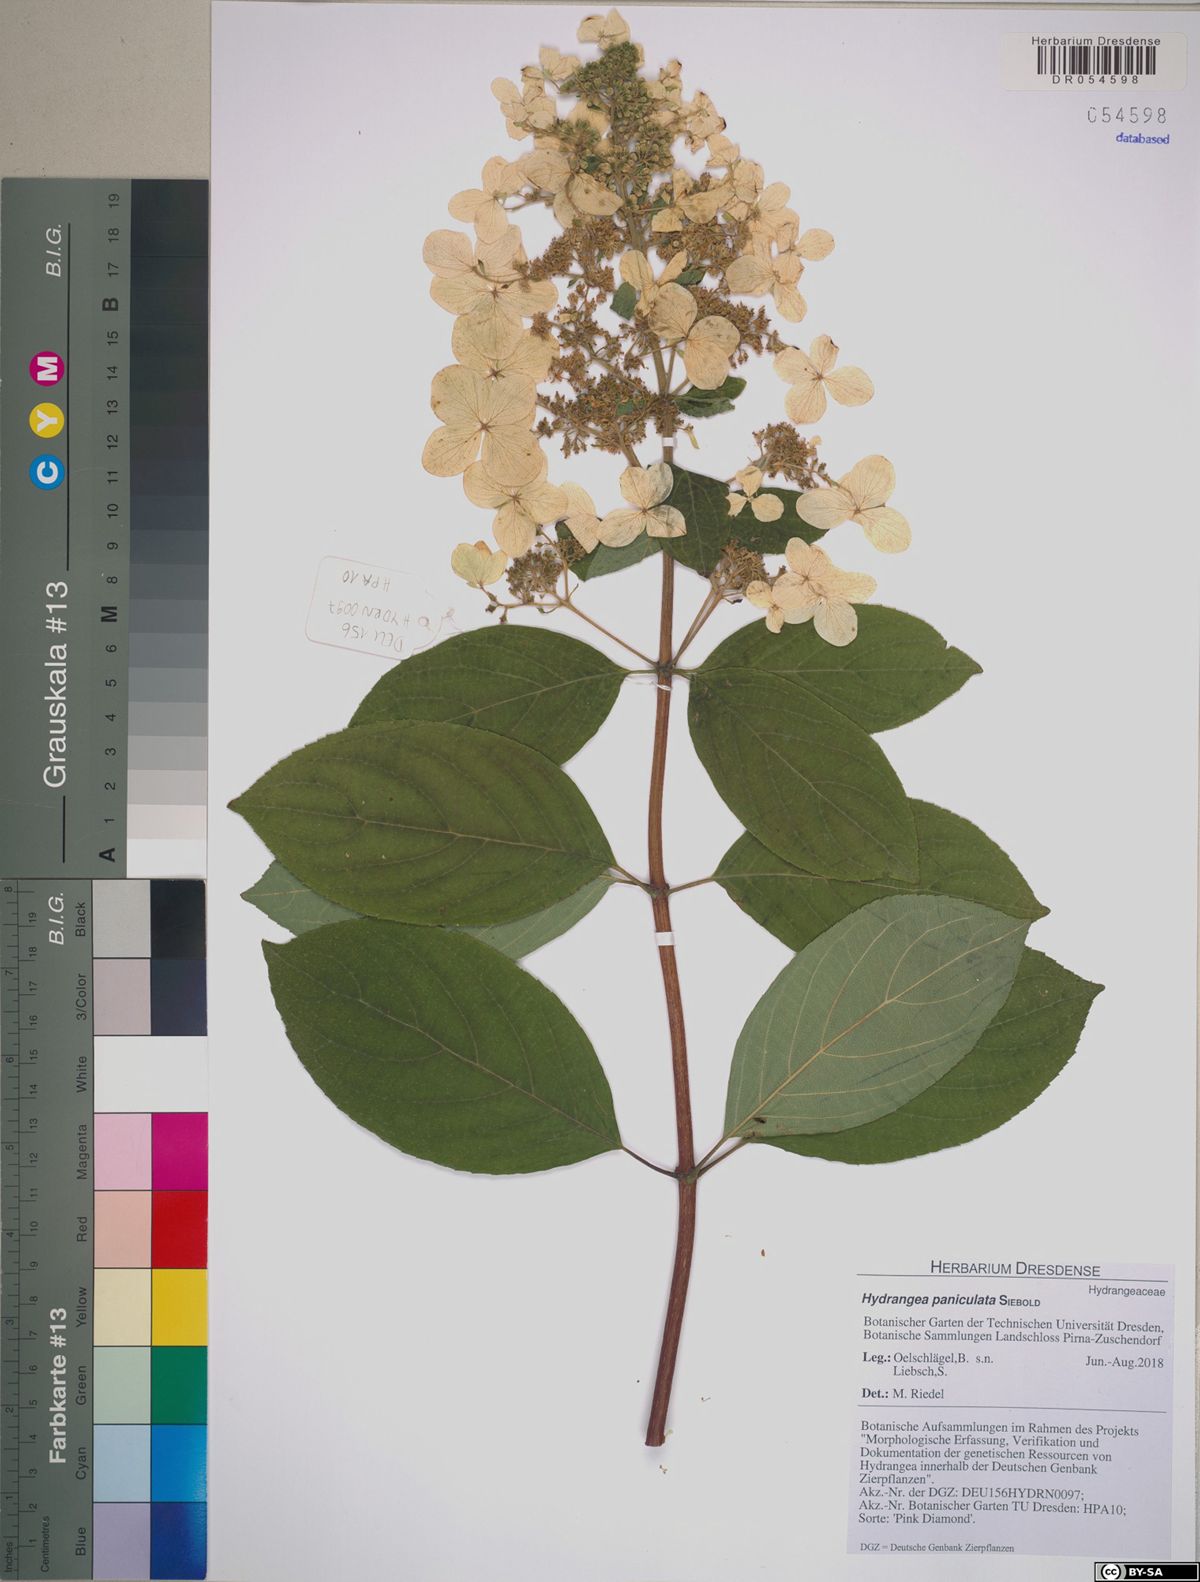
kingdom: Plantae
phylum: Tracheophyta
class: Magnoliopsida
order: Cornales
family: Hydrangeaceae
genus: Hydrangea
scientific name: Hydrangea paniculata
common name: Panicled hydrangea
